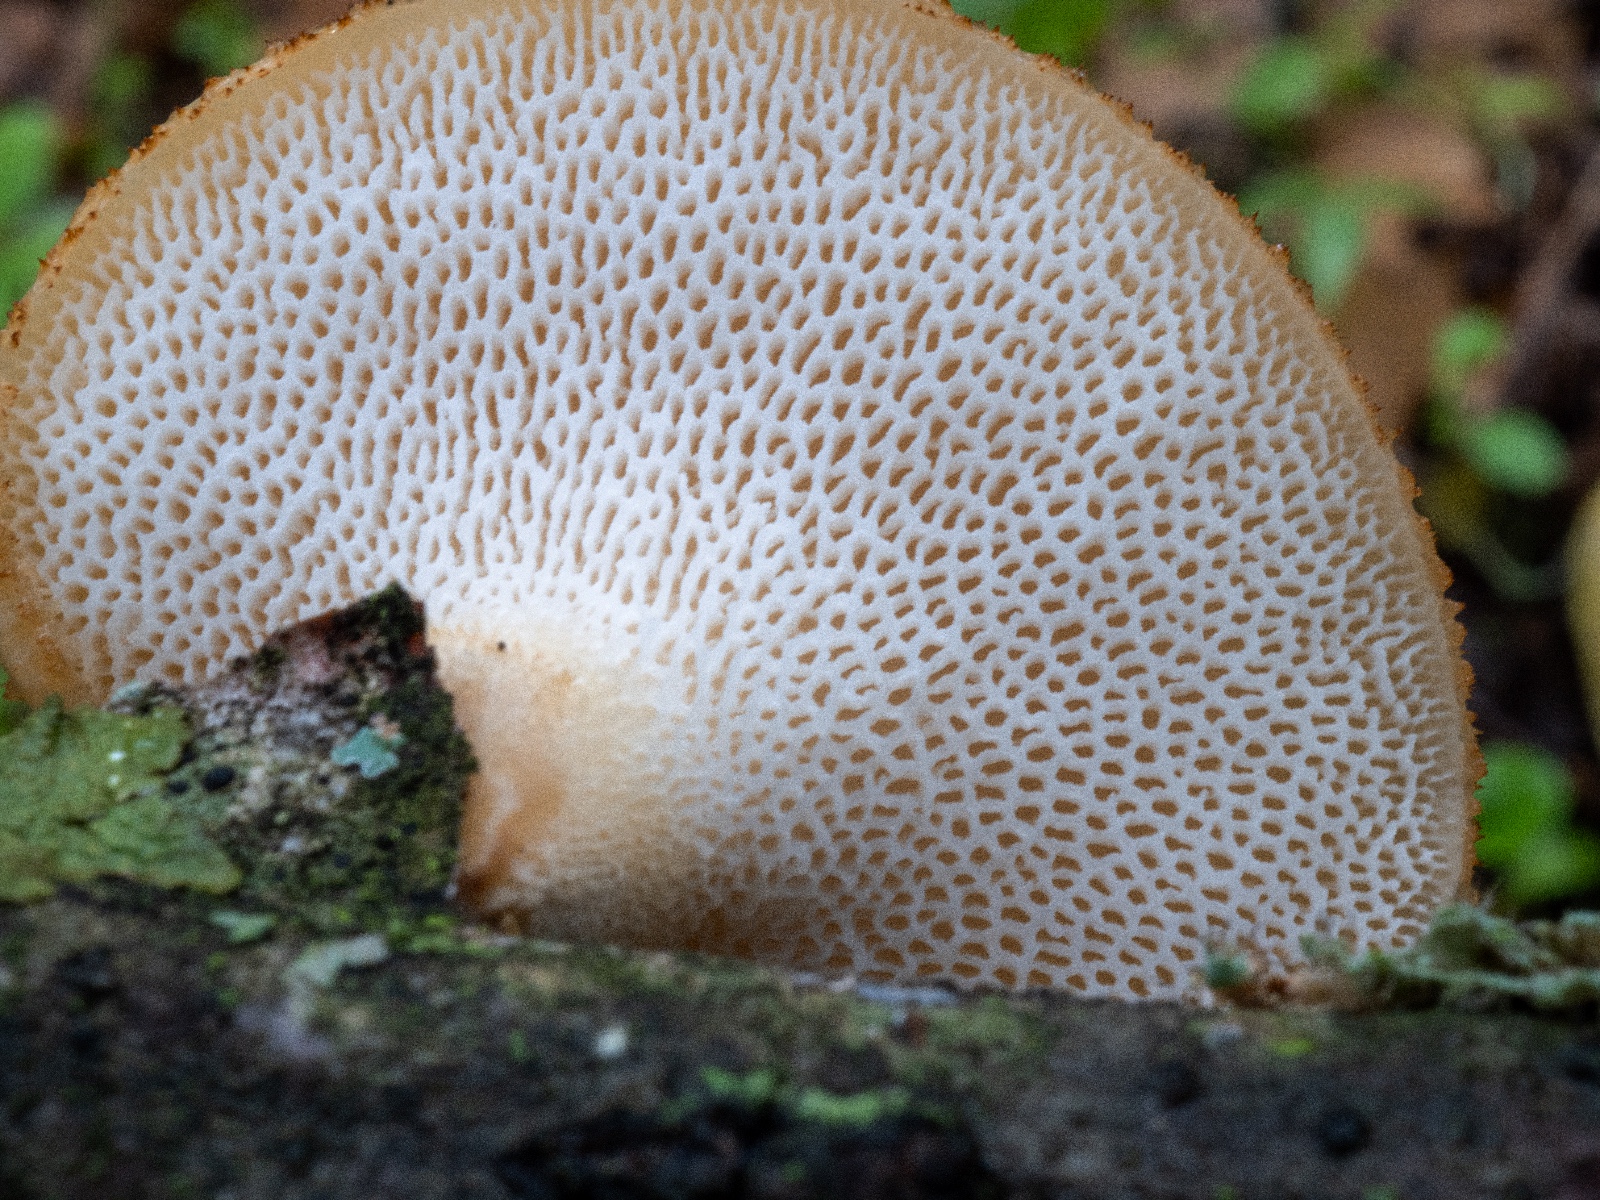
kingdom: Fungi
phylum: Basidiomycota
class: Agaricomycetes
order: Polyporales
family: Polyporaceae
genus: Neofavolus
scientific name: Neofavolus alveolaris
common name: Hexagonal-pored polypore
